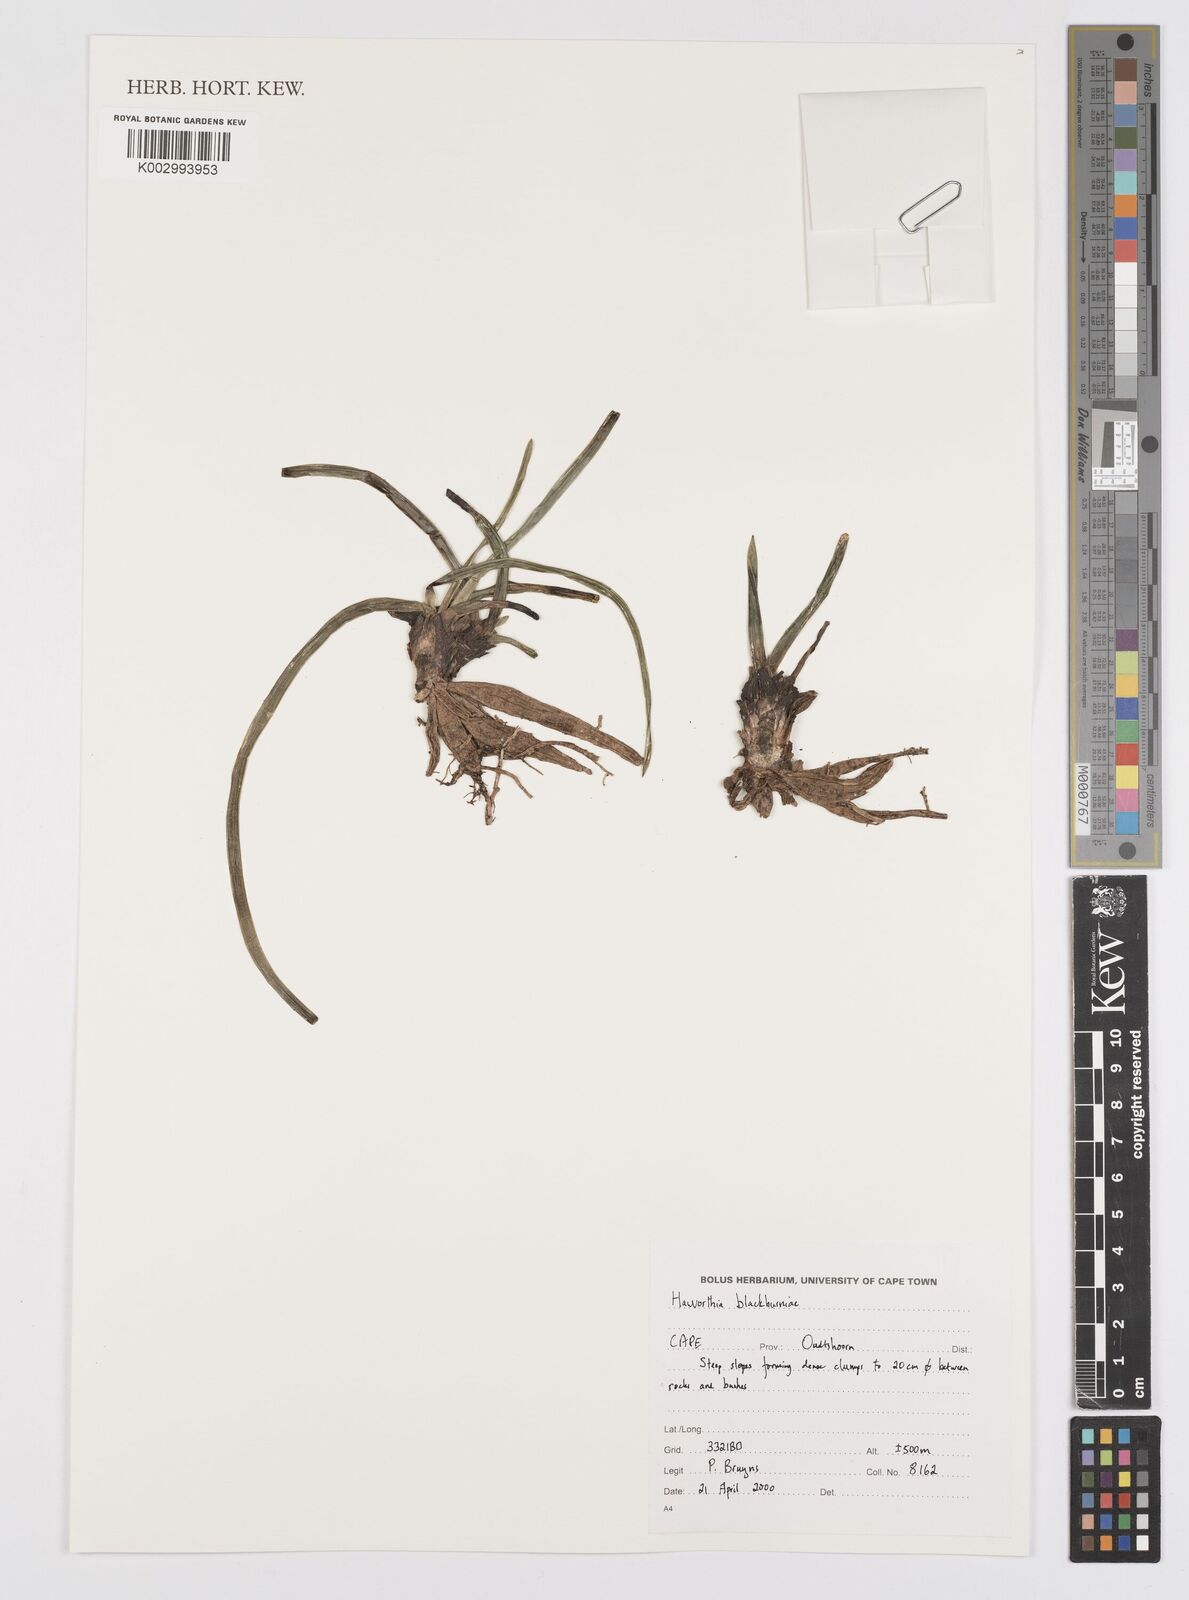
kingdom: Plantae
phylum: Tracheophyta
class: Liliopsida
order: Asparagales
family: Asphodelaceae
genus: Haworthia
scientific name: Haworthia bolusii
